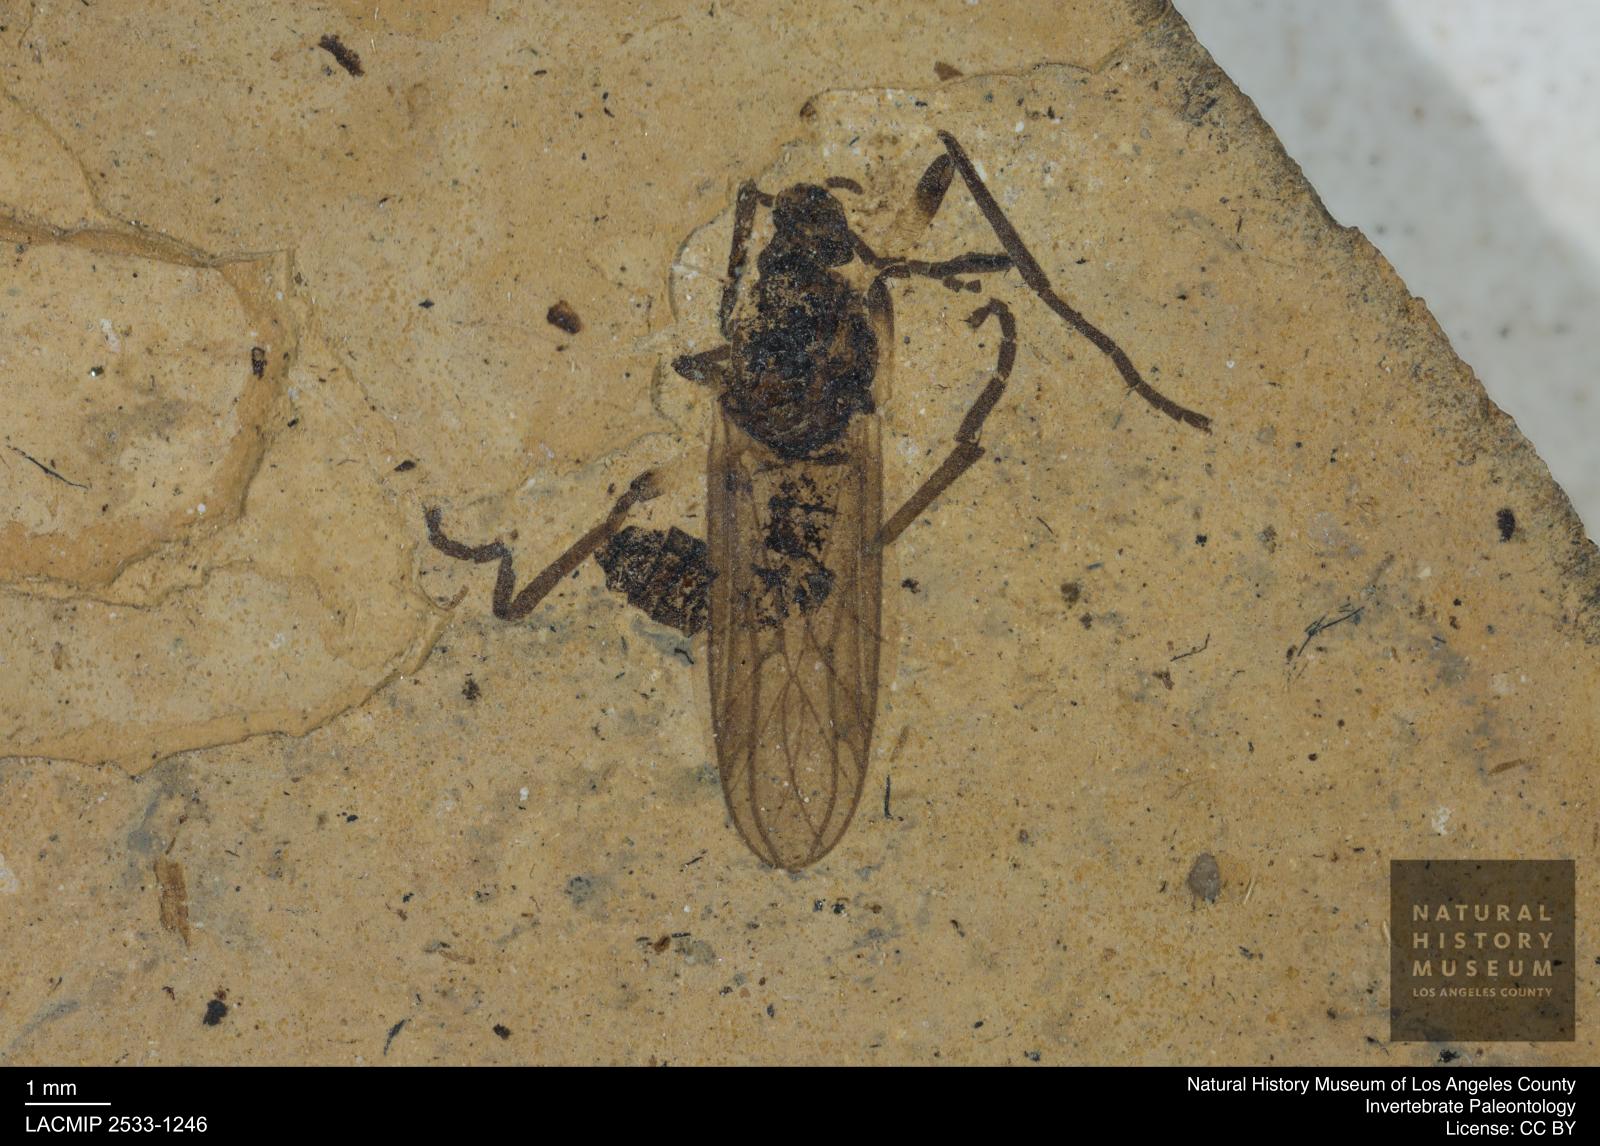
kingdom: Animalia
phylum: Arthropoda
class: Insecta
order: Diptera
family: Bibionidae
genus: Plecia
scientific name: Plecia
